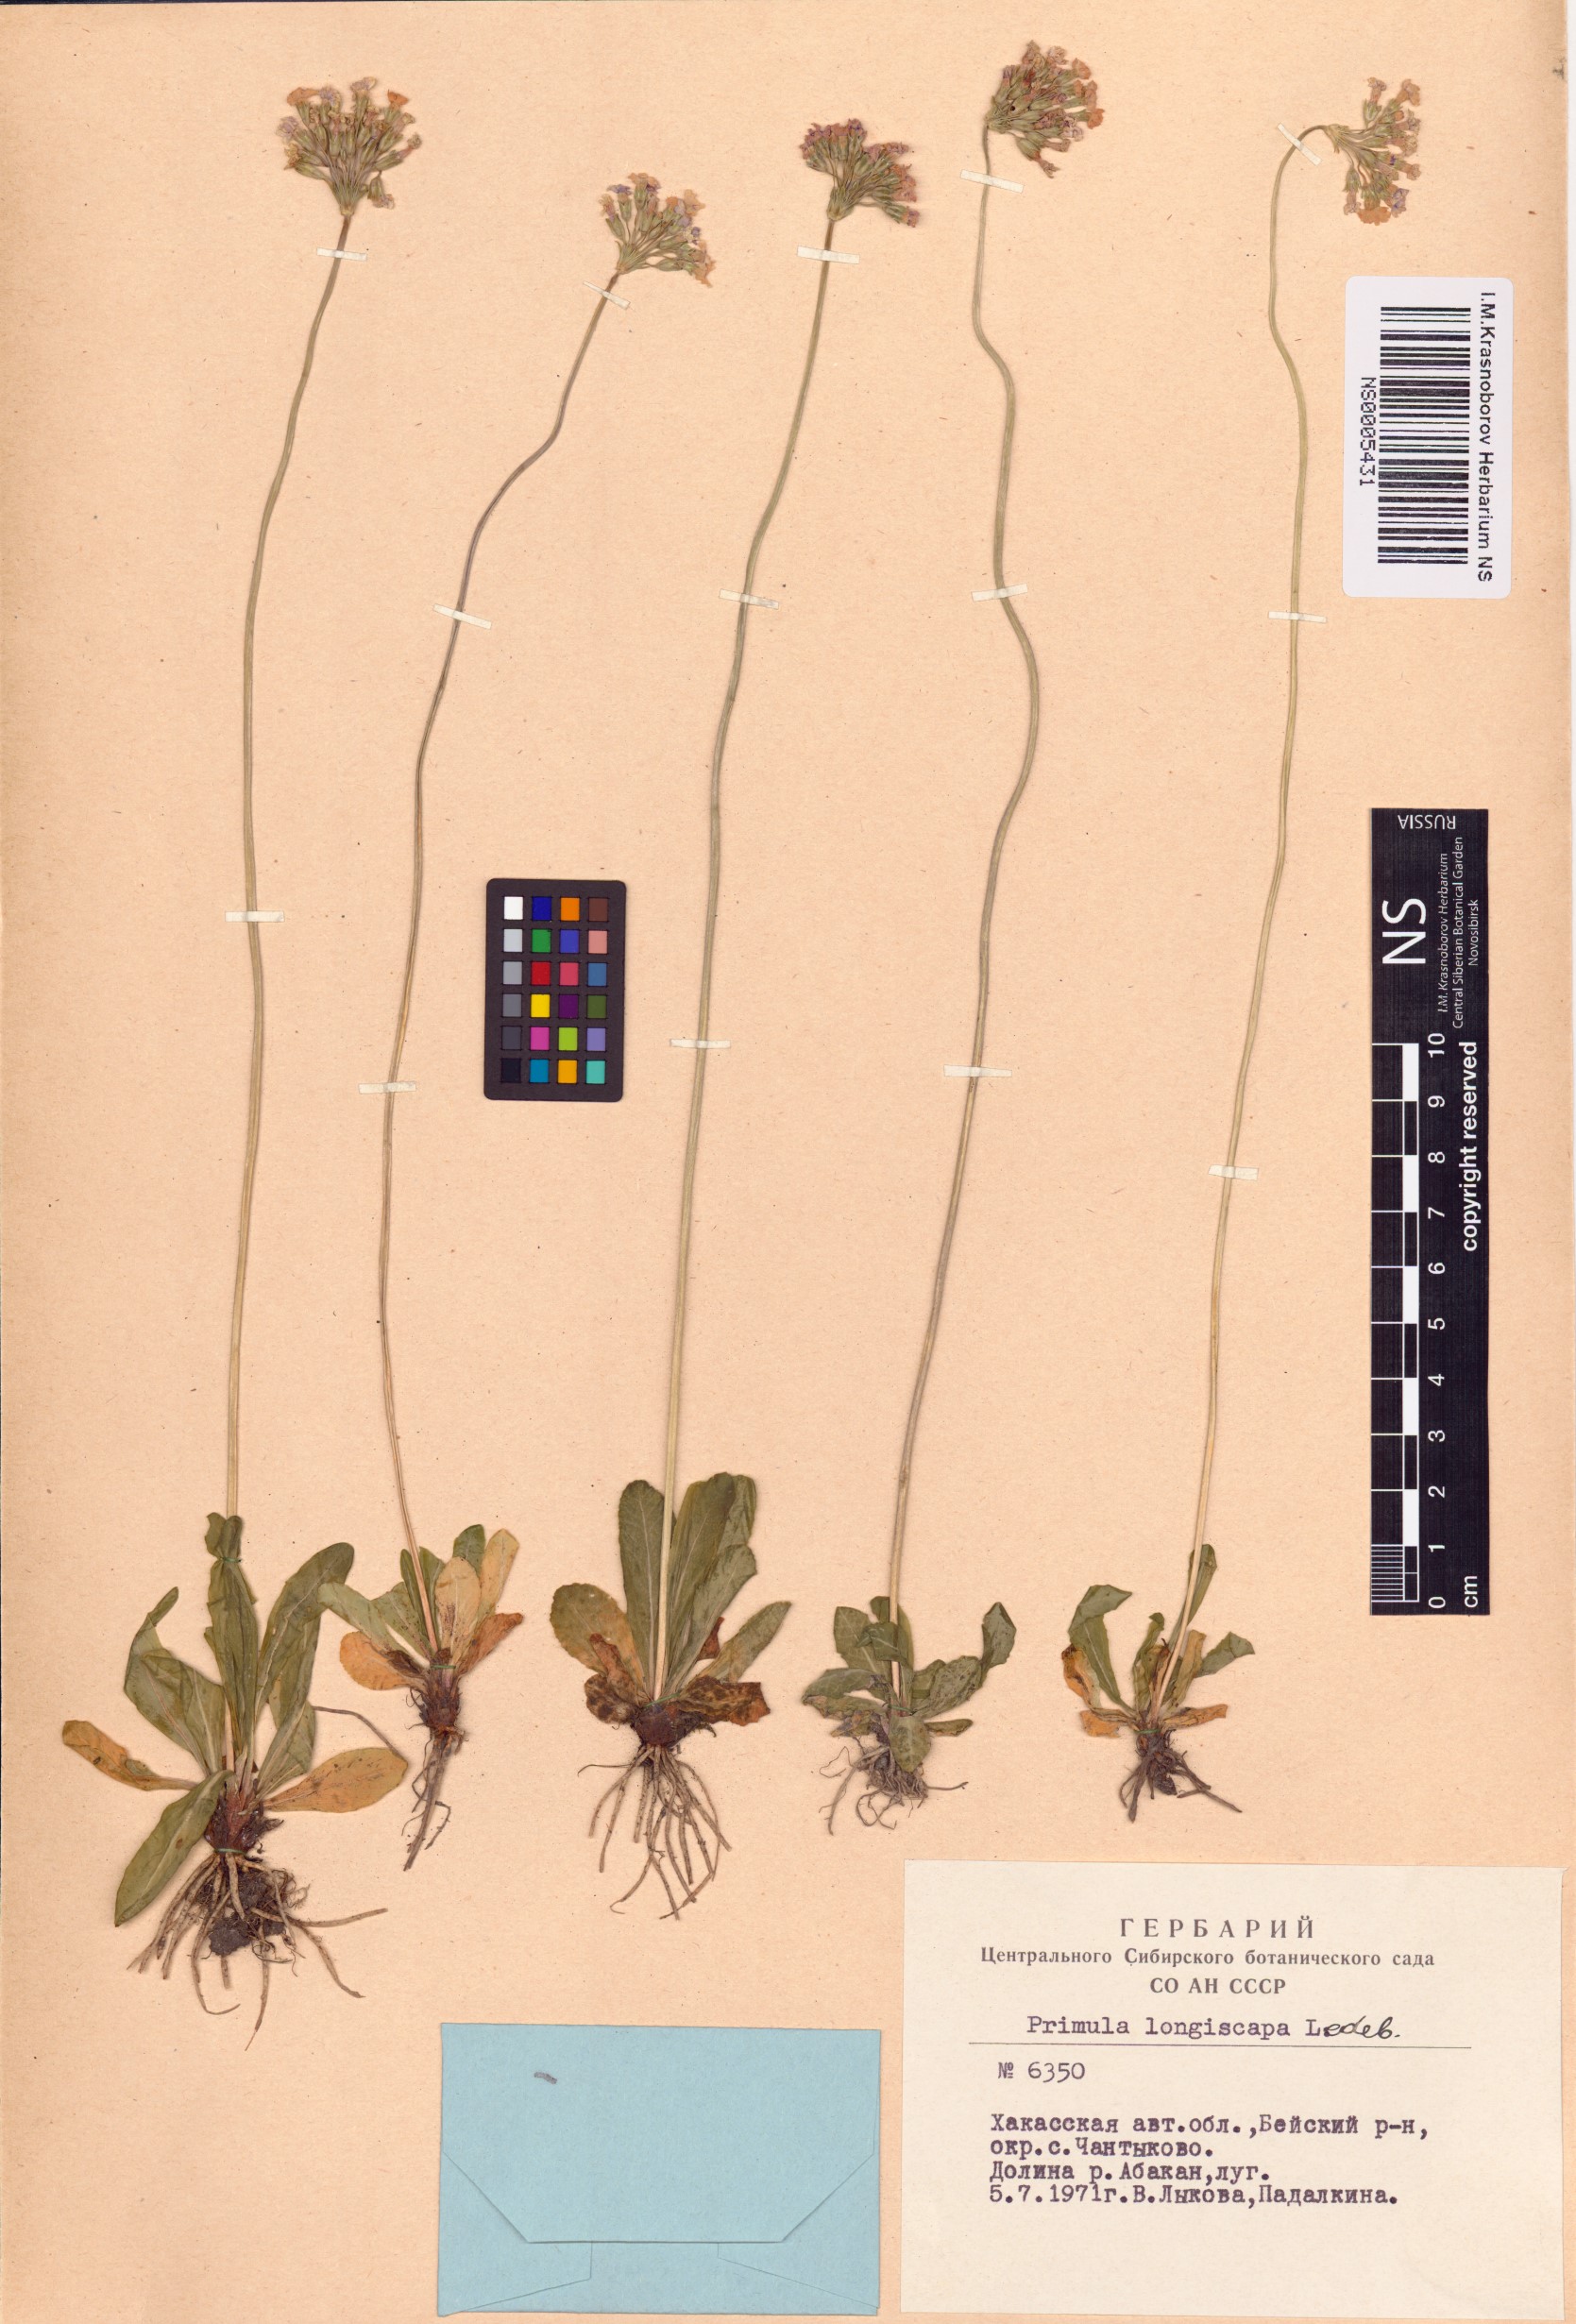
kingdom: Plantae
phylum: Tracheophyta
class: Magnoliopsida
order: Ericales
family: Primulaceae
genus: Primula
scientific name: Primula longiscapa
